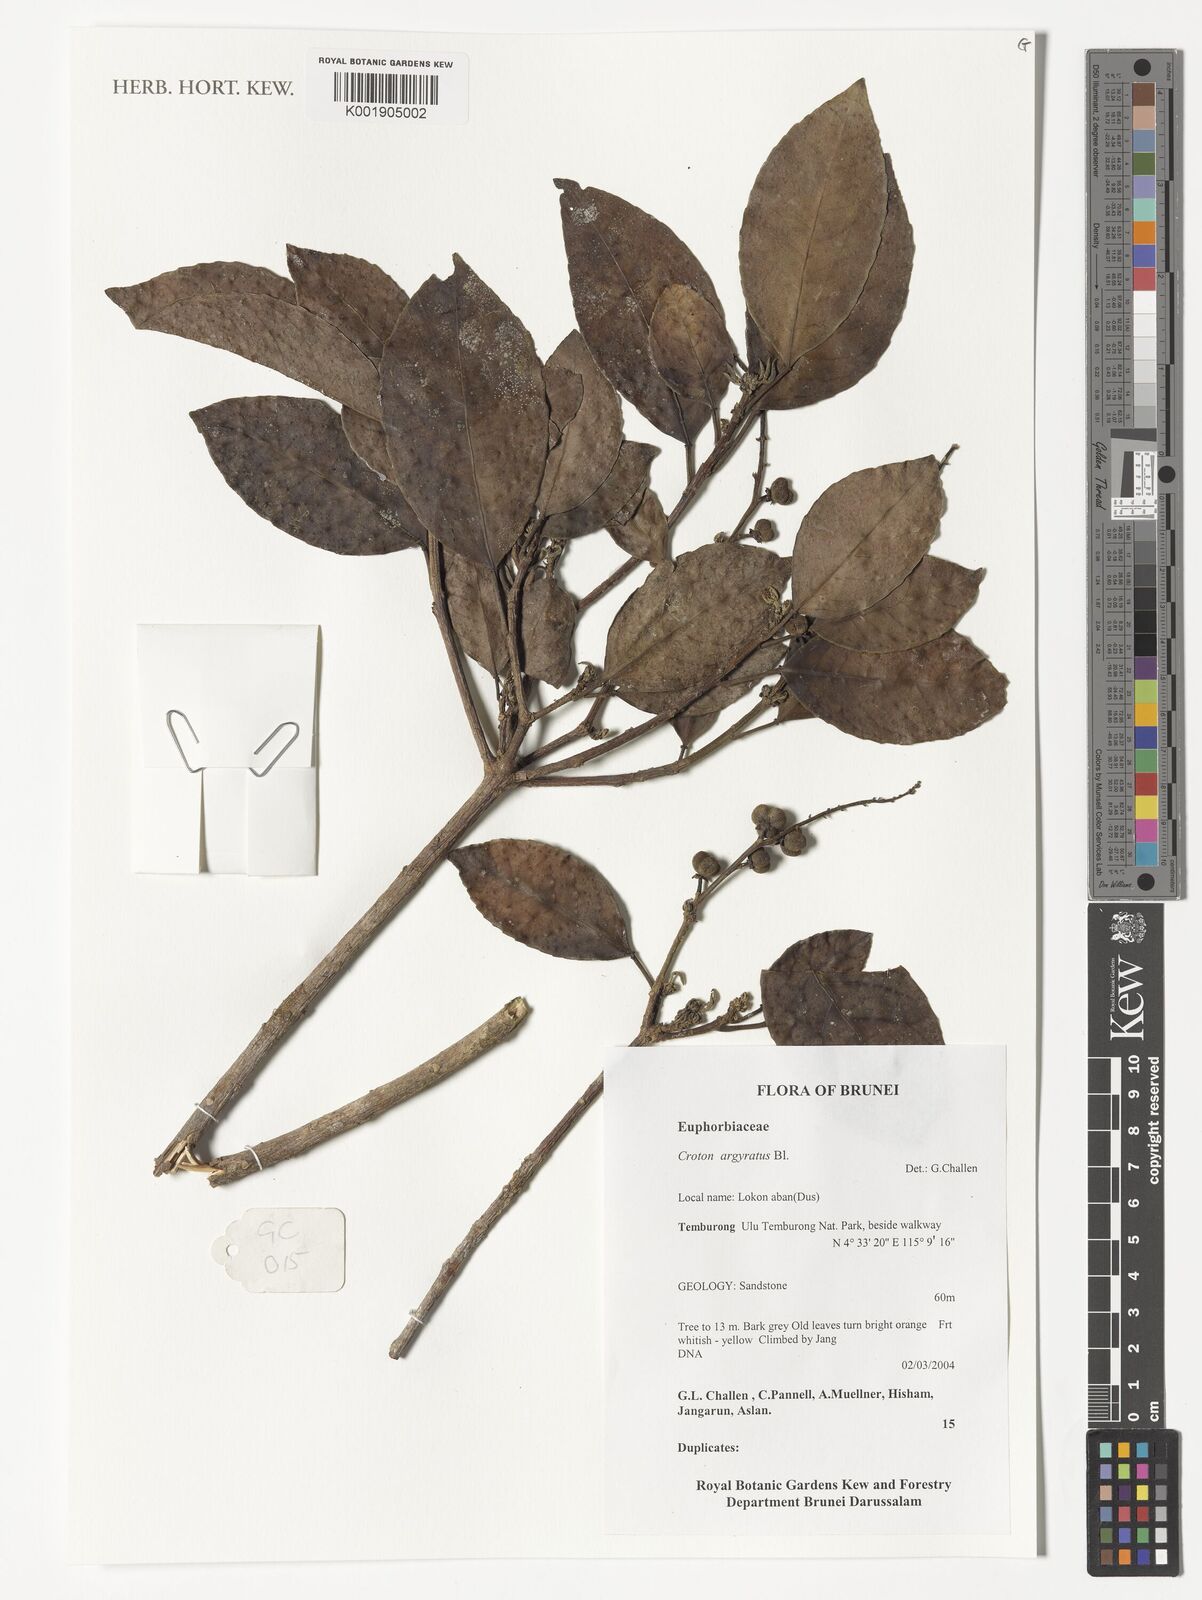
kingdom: Plantae
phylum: Tracheophyta
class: Magnoliopsida
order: Malpighiales
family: Euphorbiaceae
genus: Croton
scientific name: Croton argyratus
